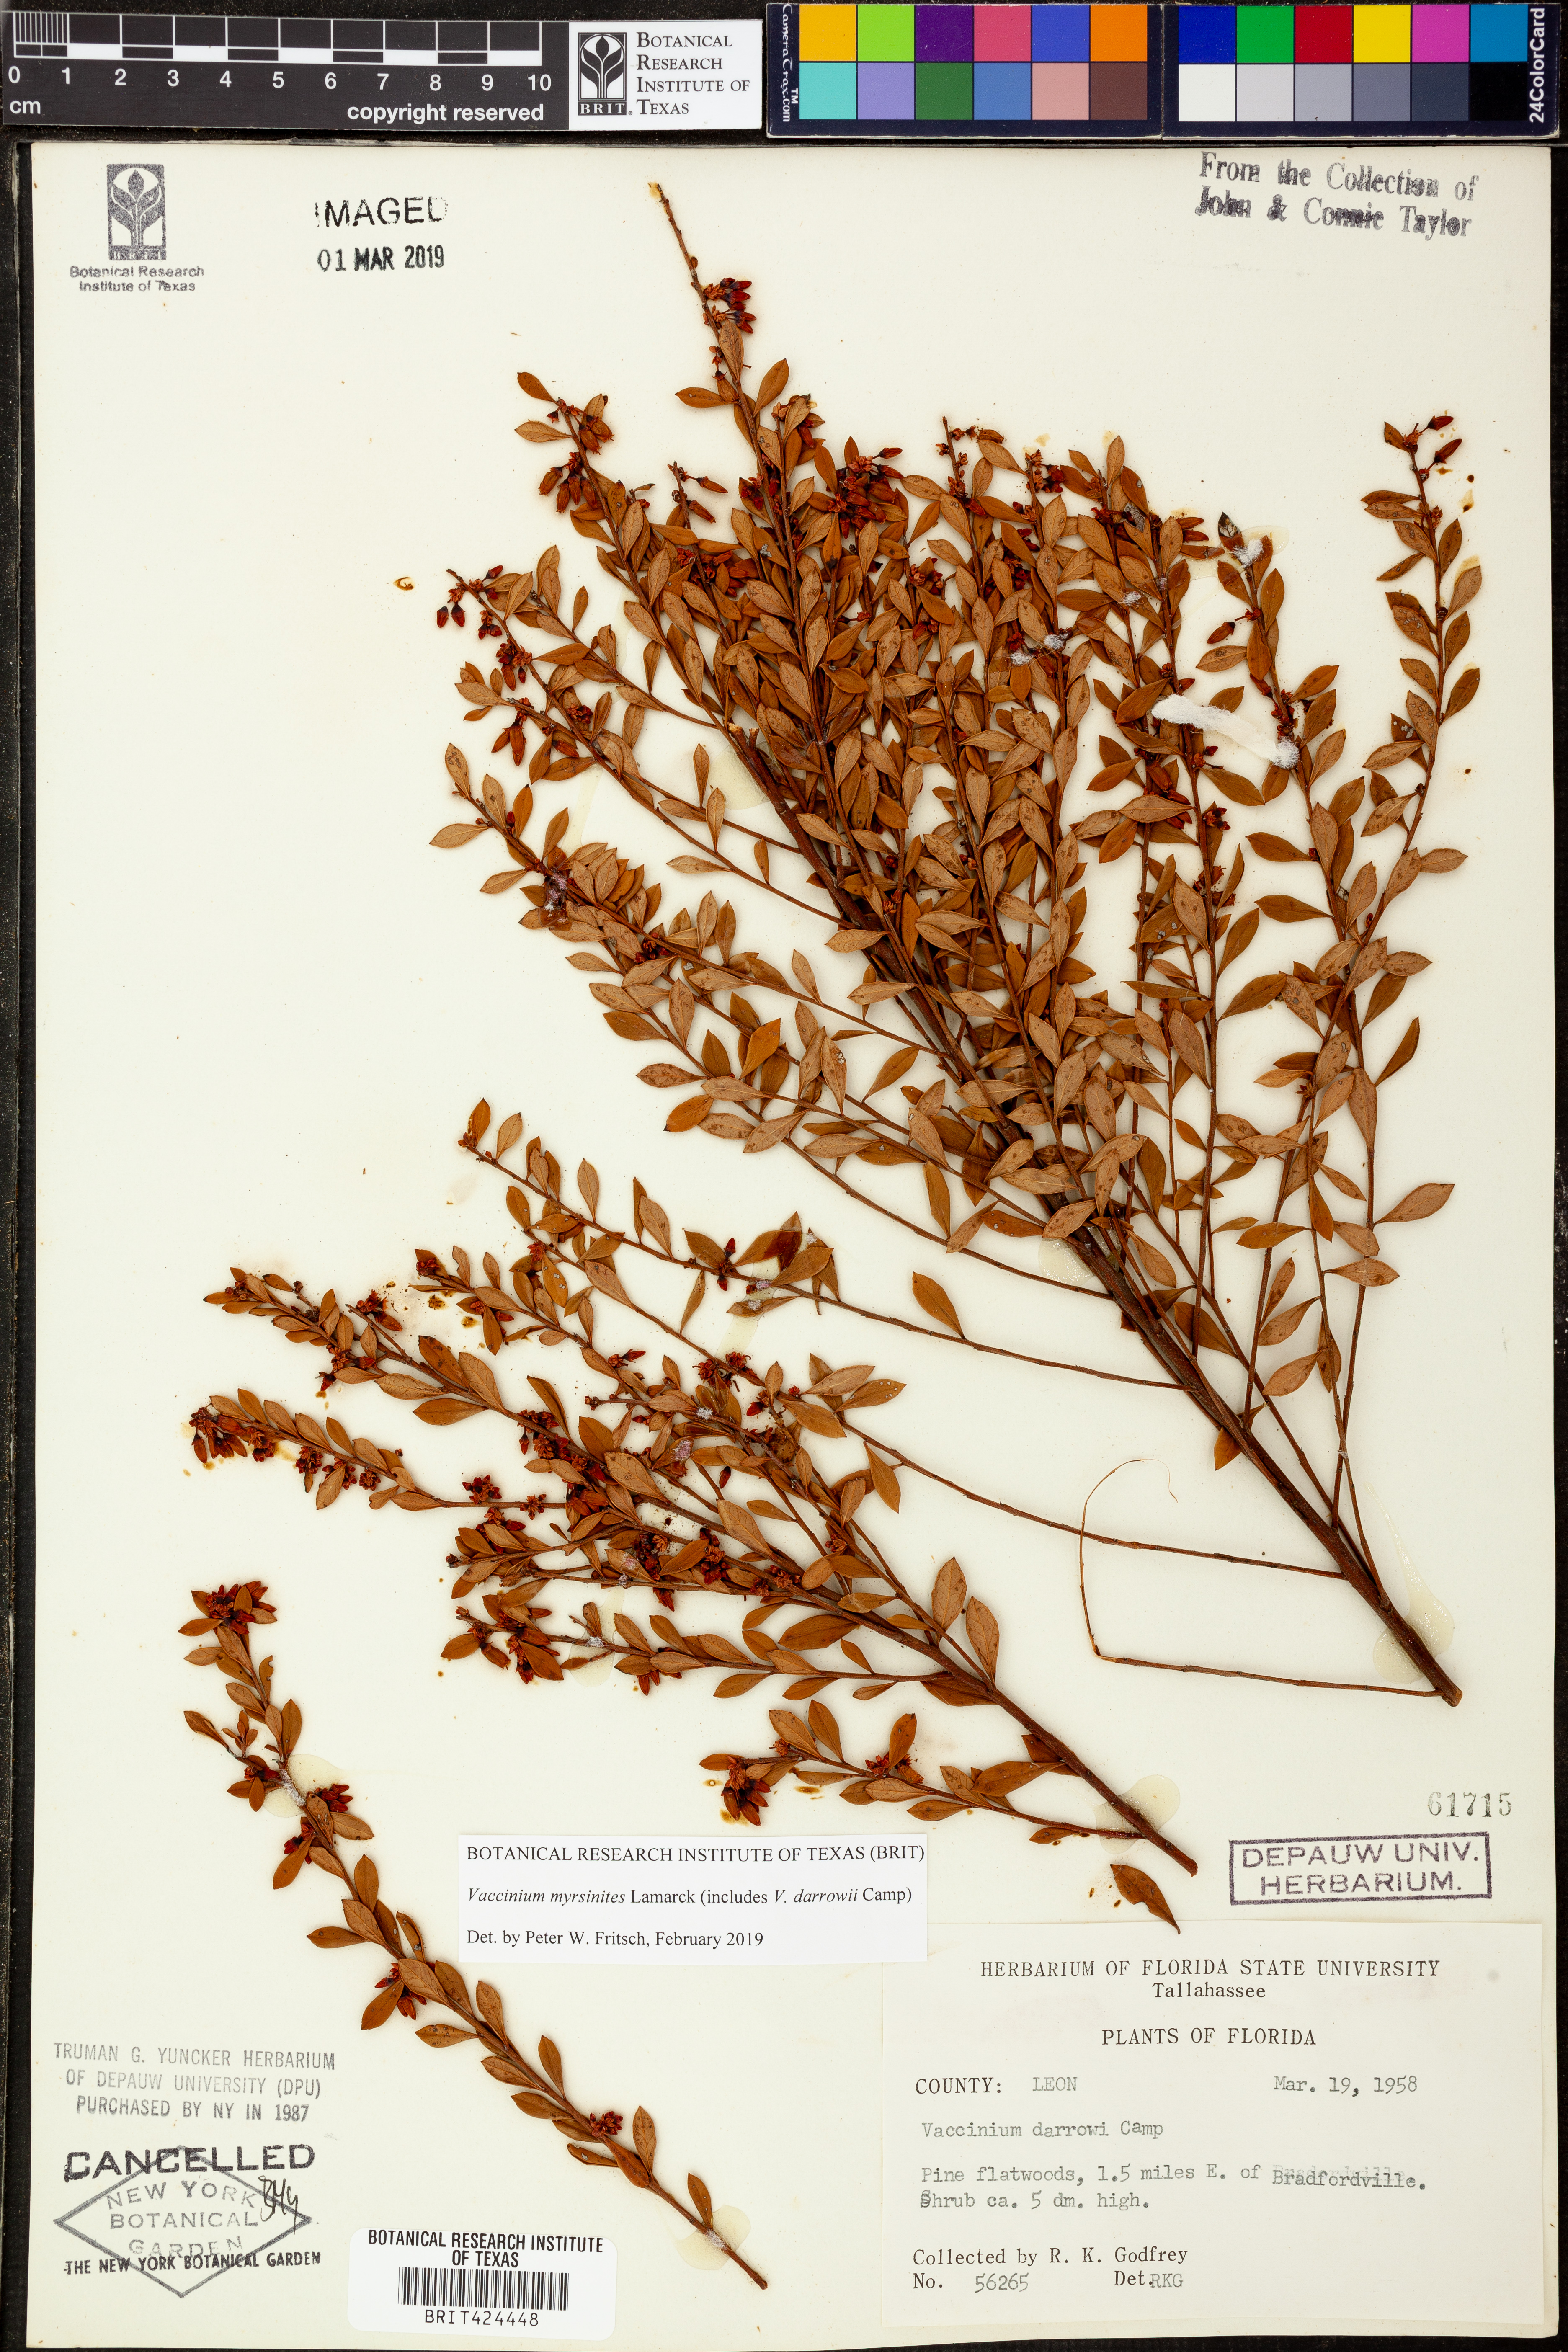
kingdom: Plantae
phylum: Tracheophyta
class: Magnoliopsida
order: Ericales
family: Ericaceae
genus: Vaccinium
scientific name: Vaccinium myrsinites
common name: Evergreen blueberry
